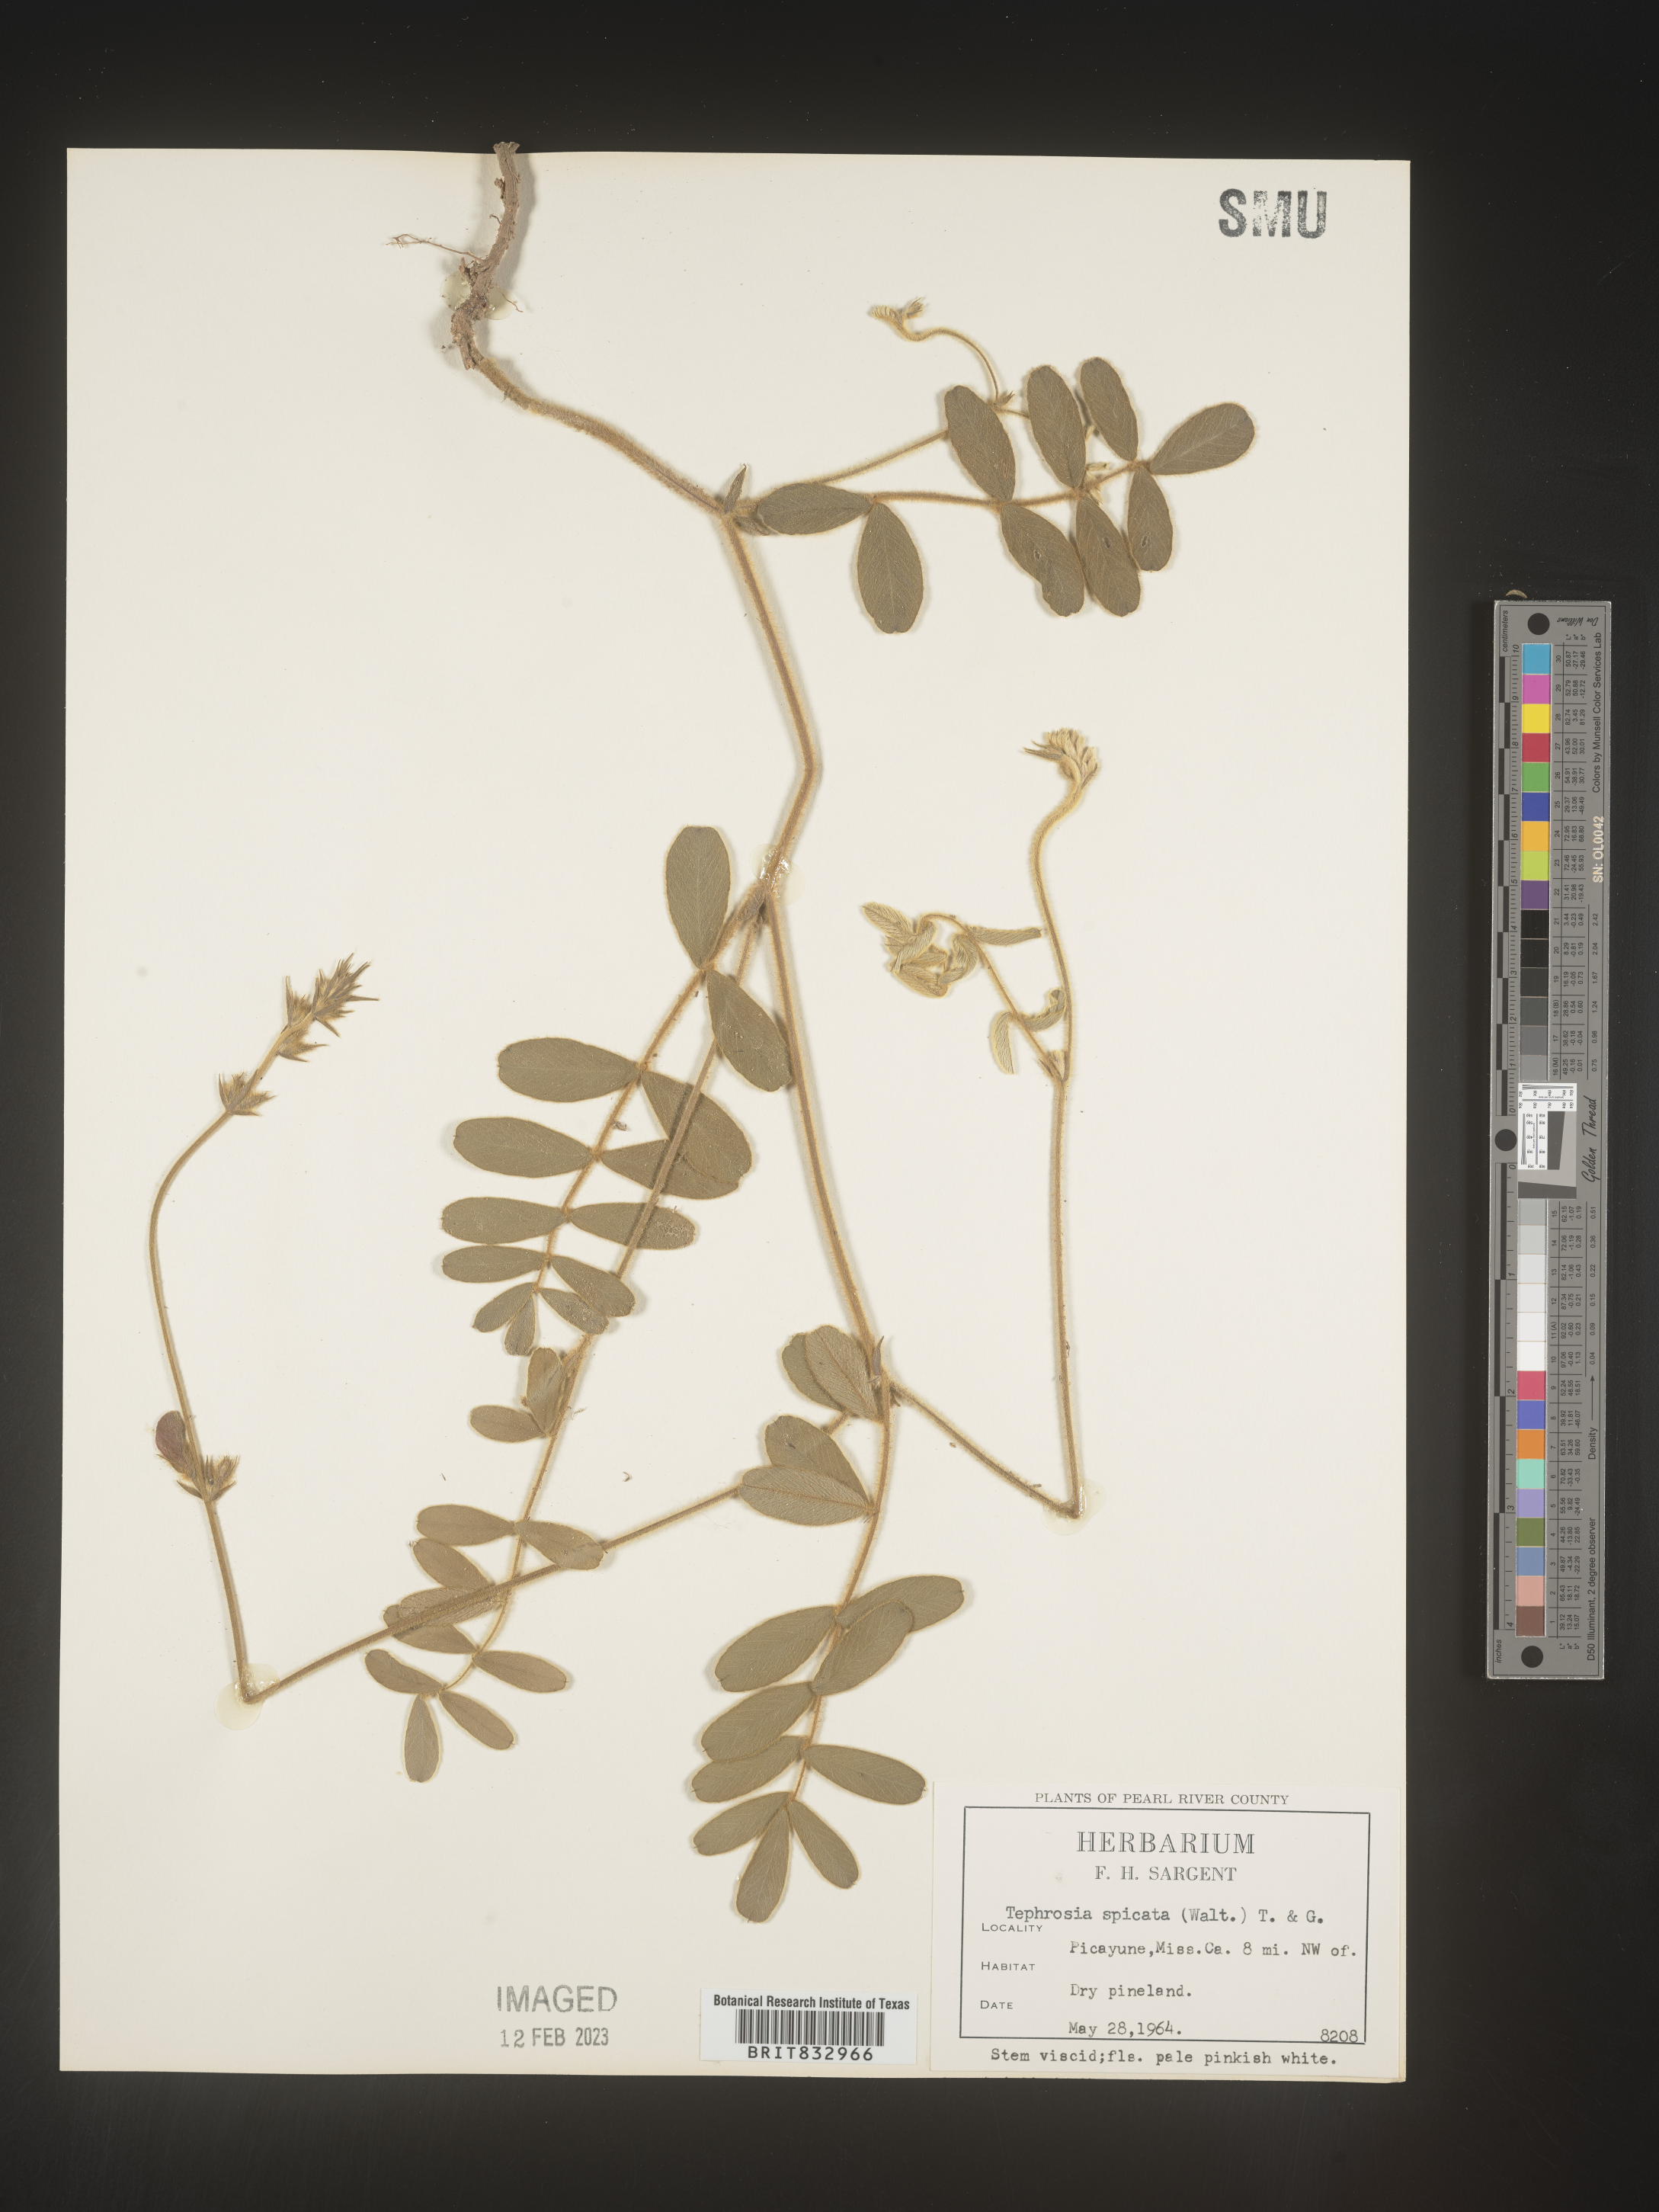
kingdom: Plantae
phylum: Tracheophyta
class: Magnoliopsida
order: Fabales
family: Fabaceae
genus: Tephrosia
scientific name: Tephrosia spicata
